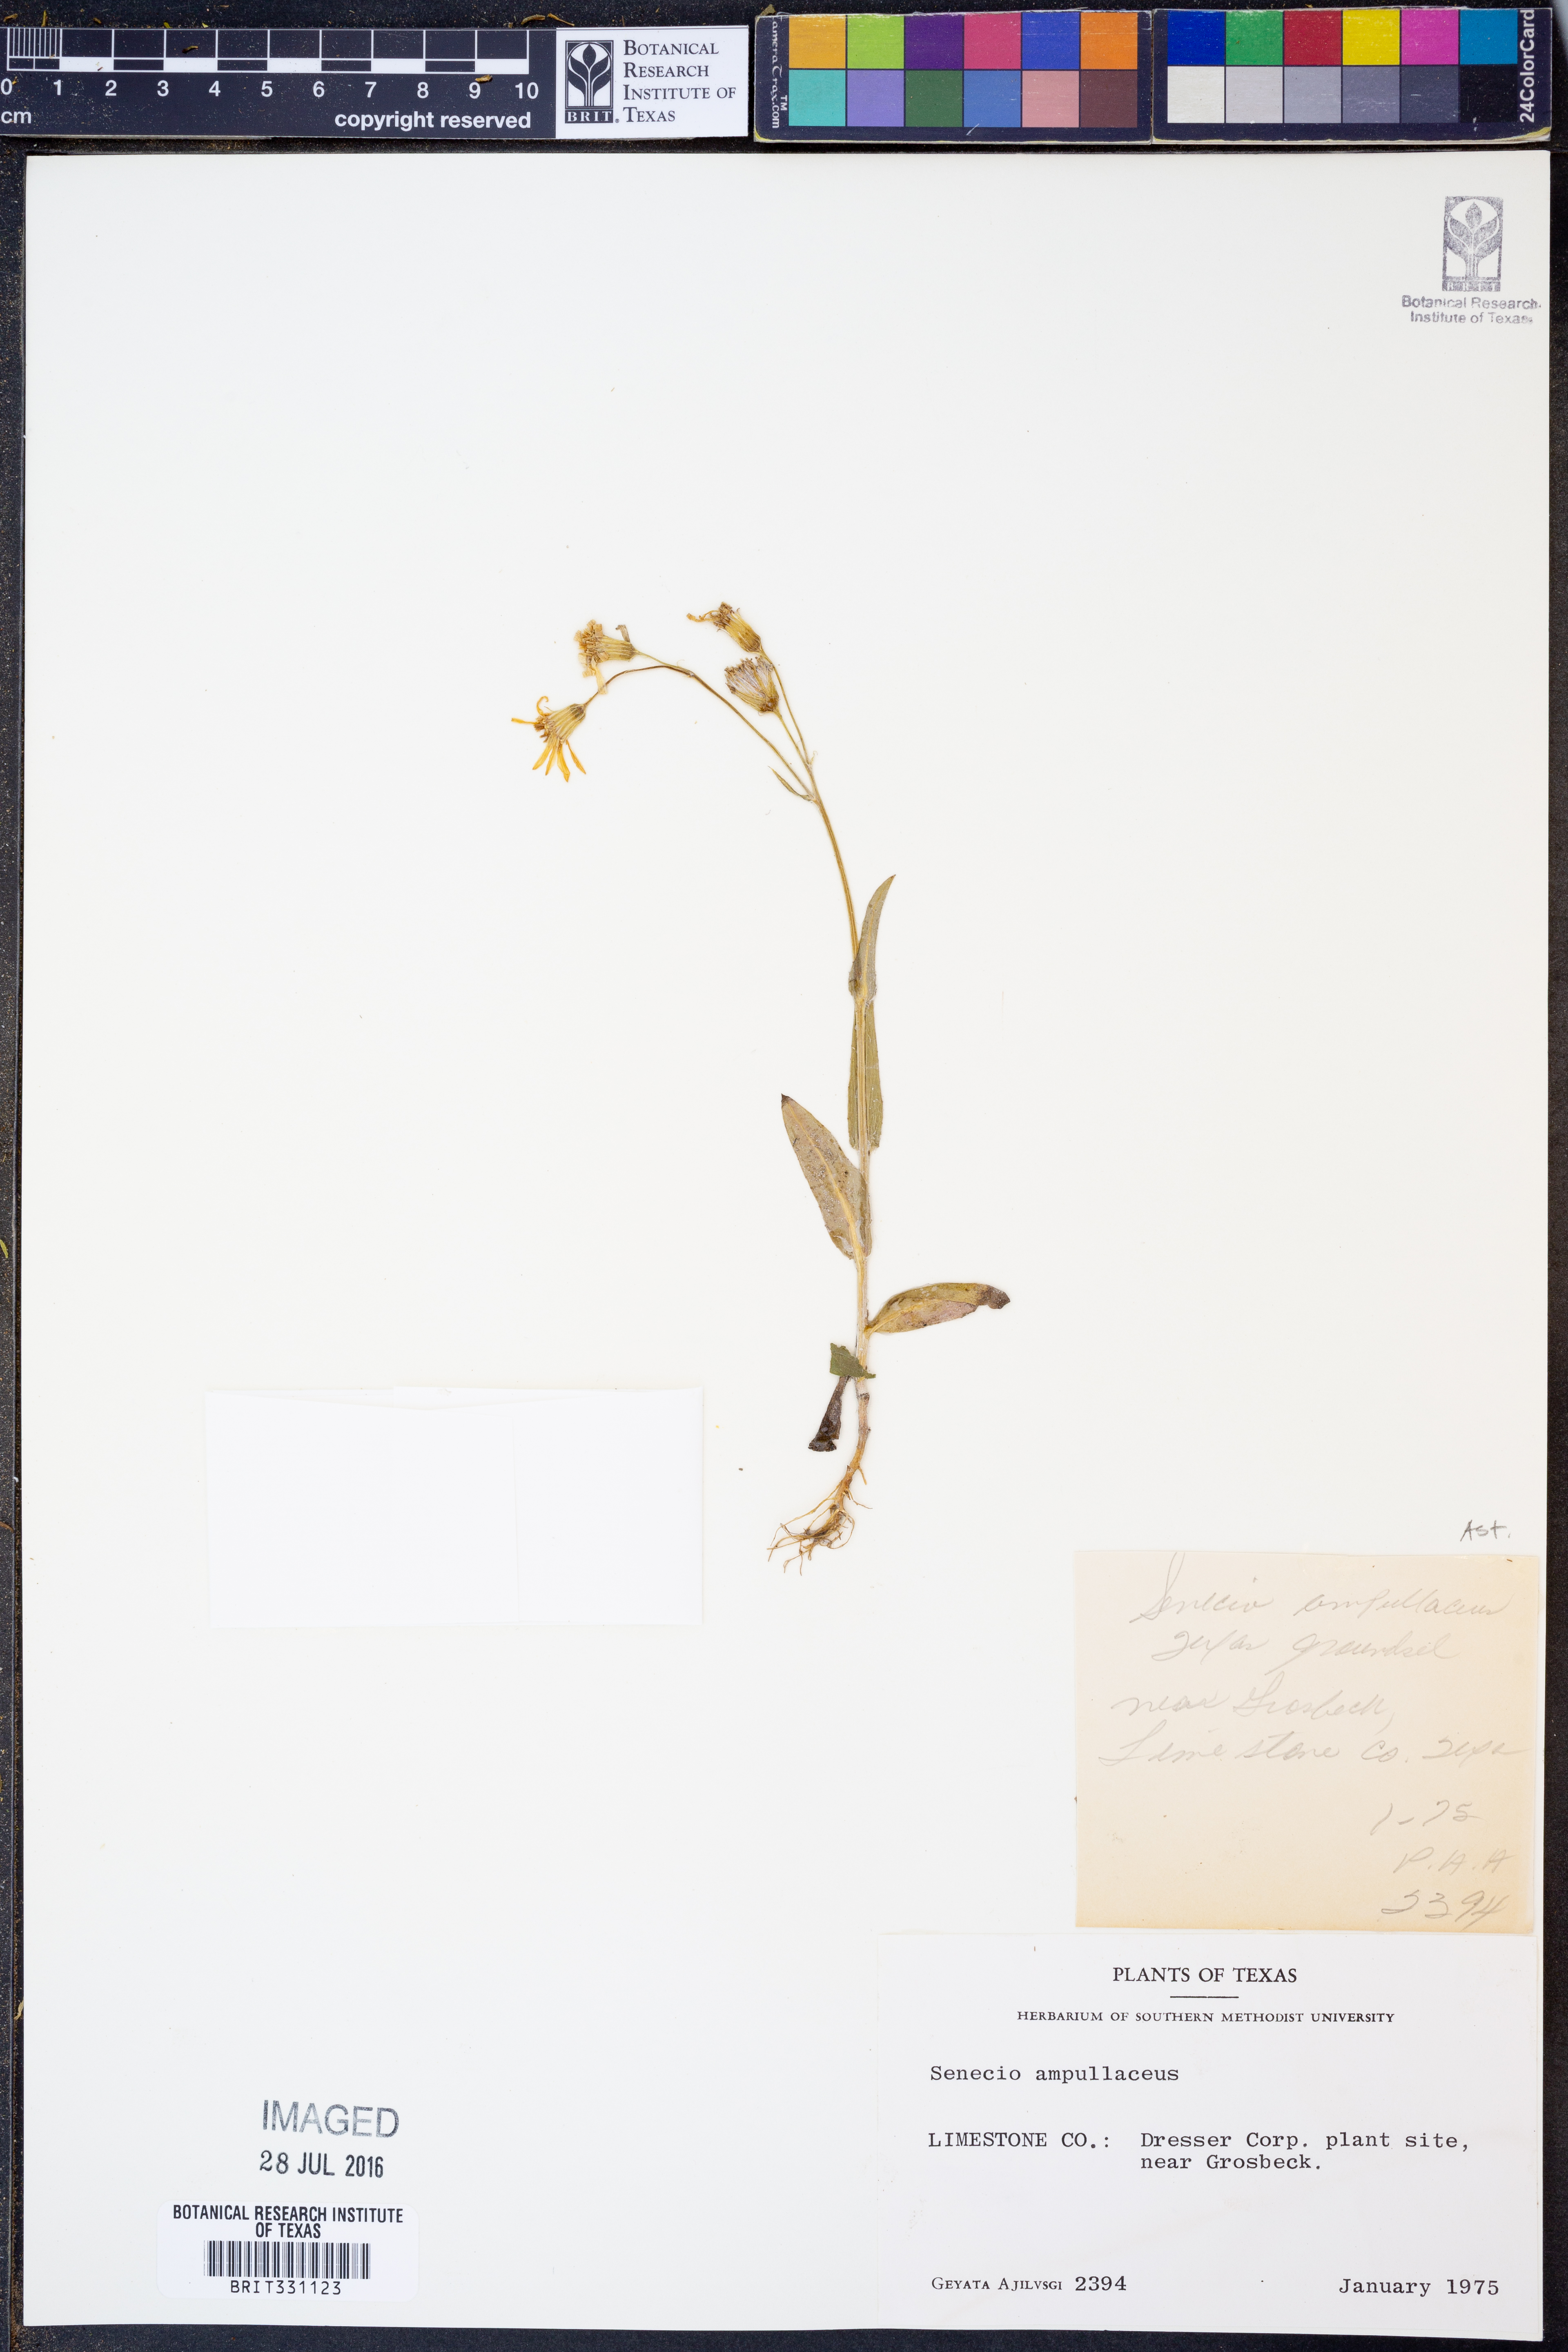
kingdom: Plantae
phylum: Tracheophyta
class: Magnoliopsida
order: Asterales
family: Asteraceae
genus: Senecio
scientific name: Senecio ampullaceus
